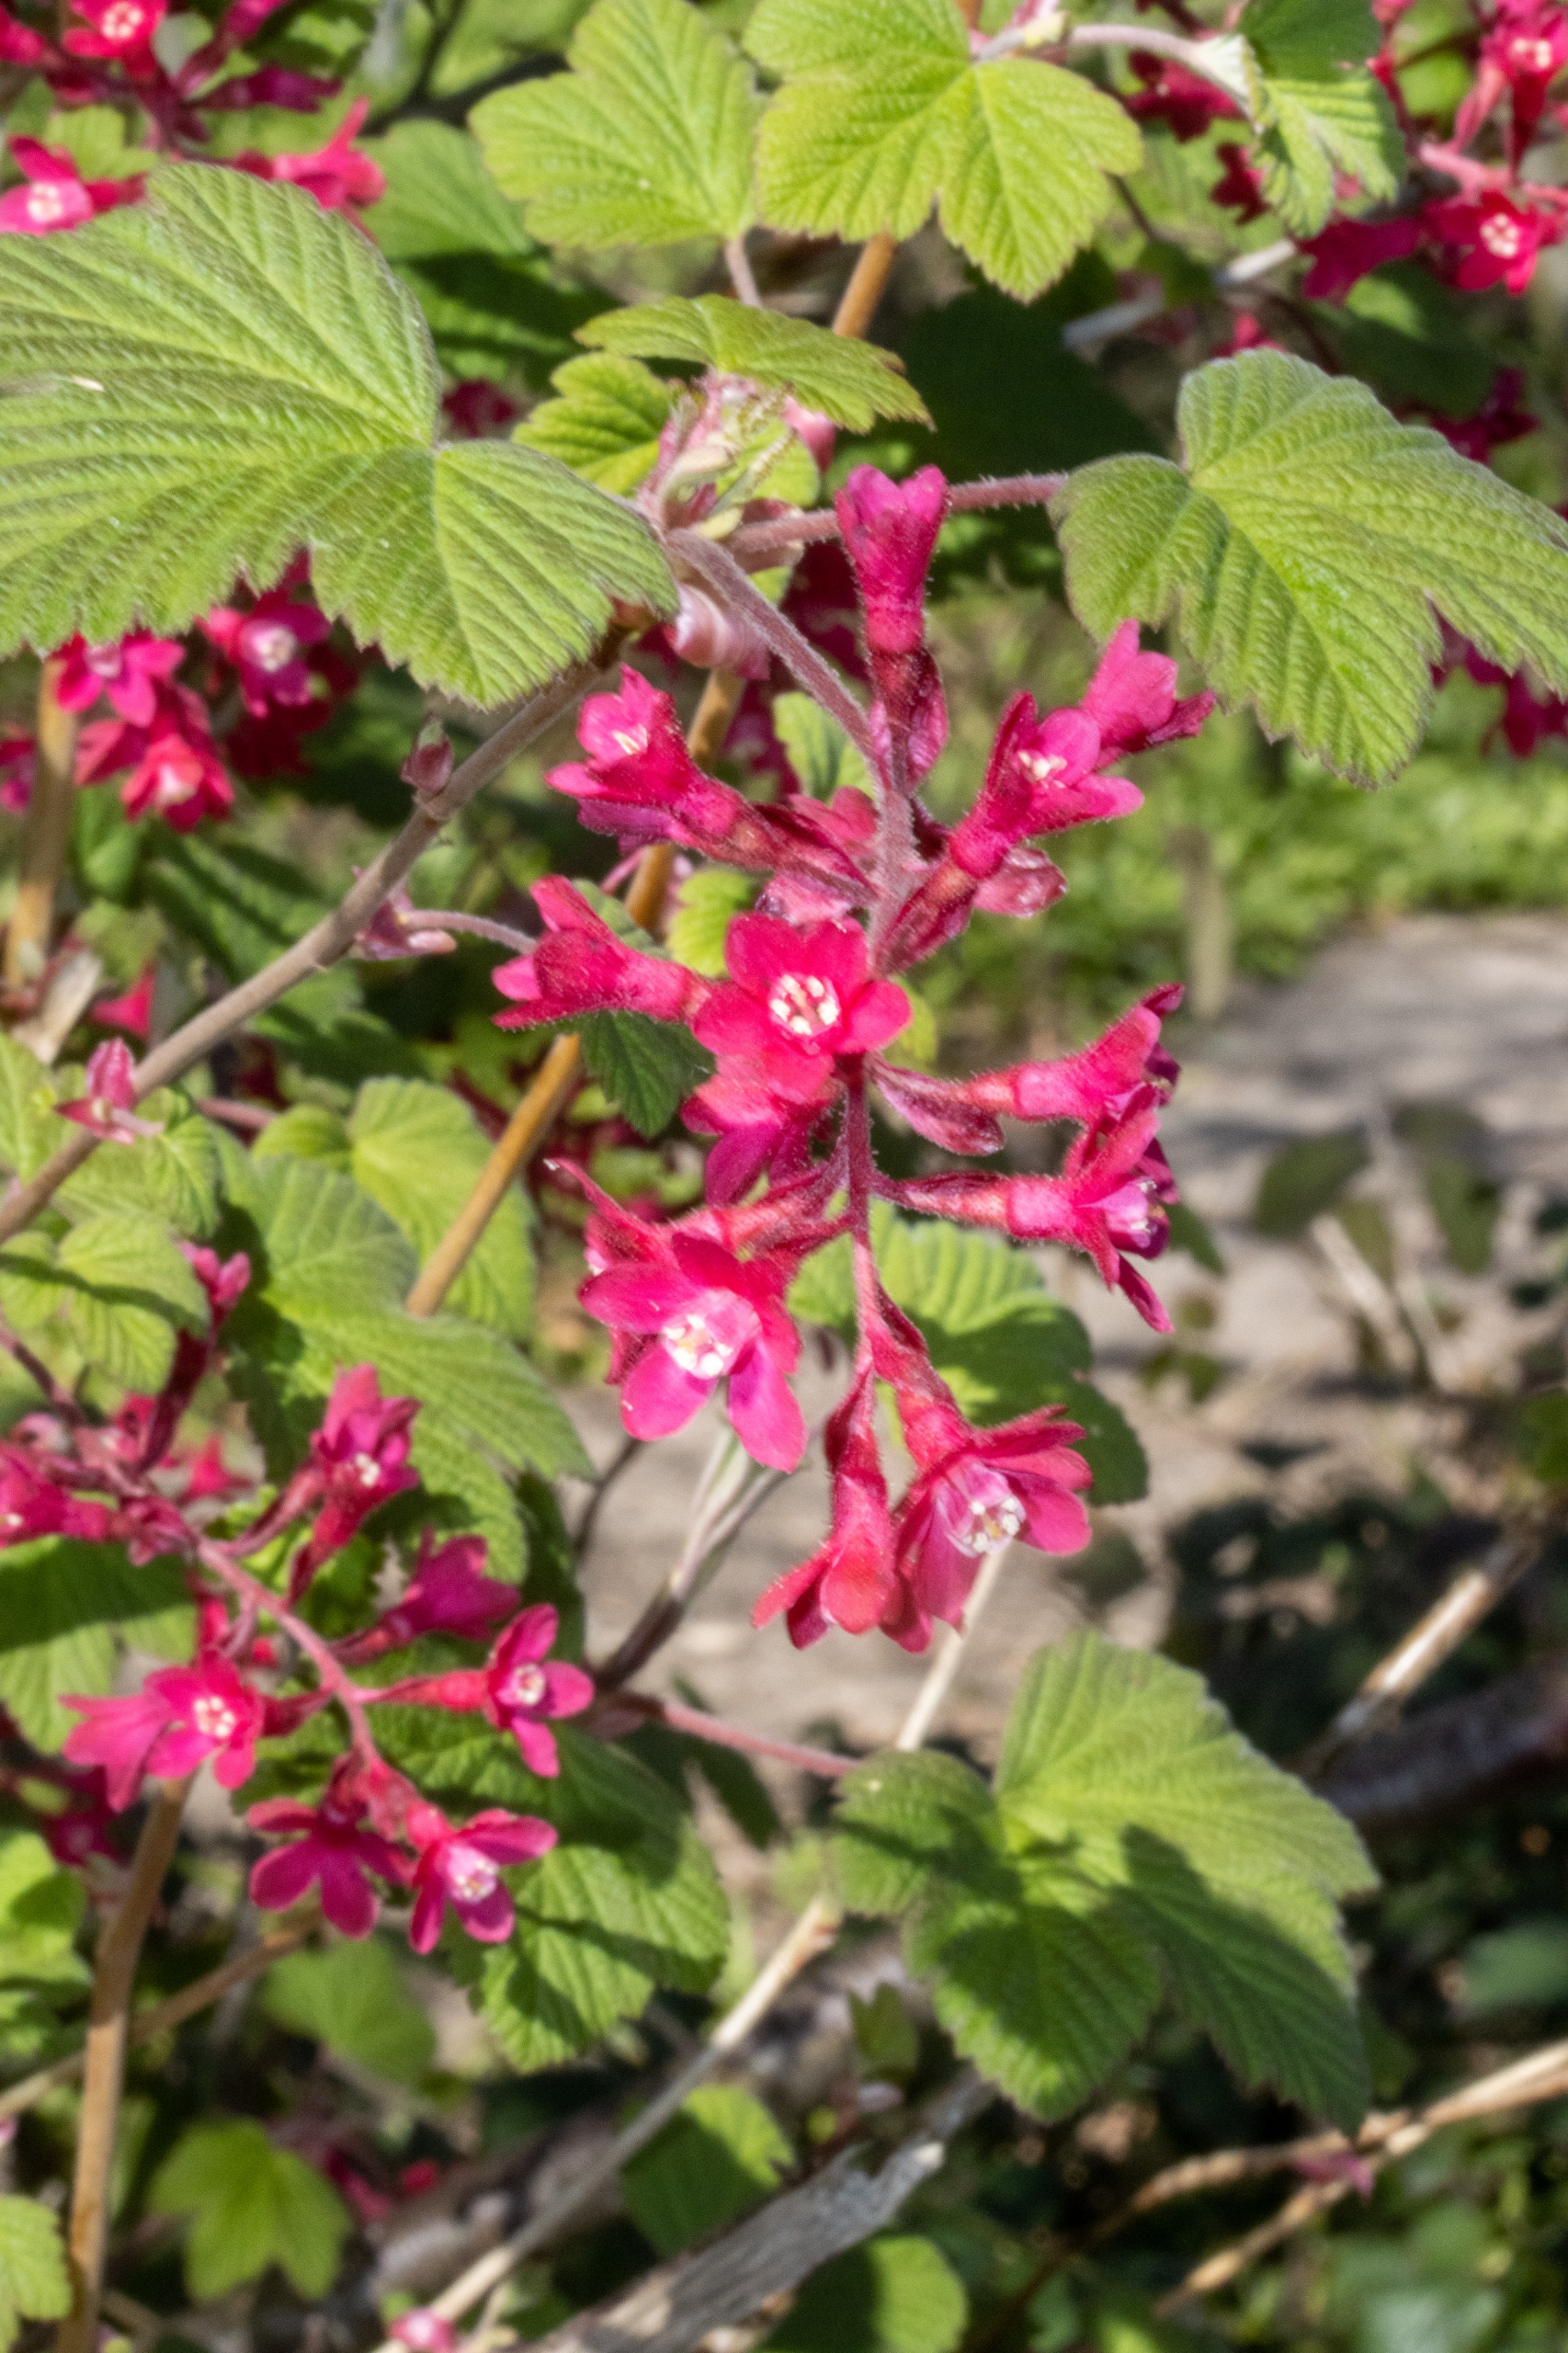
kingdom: Plantae
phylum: Tracheophyta
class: Magnoliopsida
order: Saxifragales
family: Grossulariaceae
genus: Ribes
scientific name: Ribes sanguineum
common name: Blod-ribs
